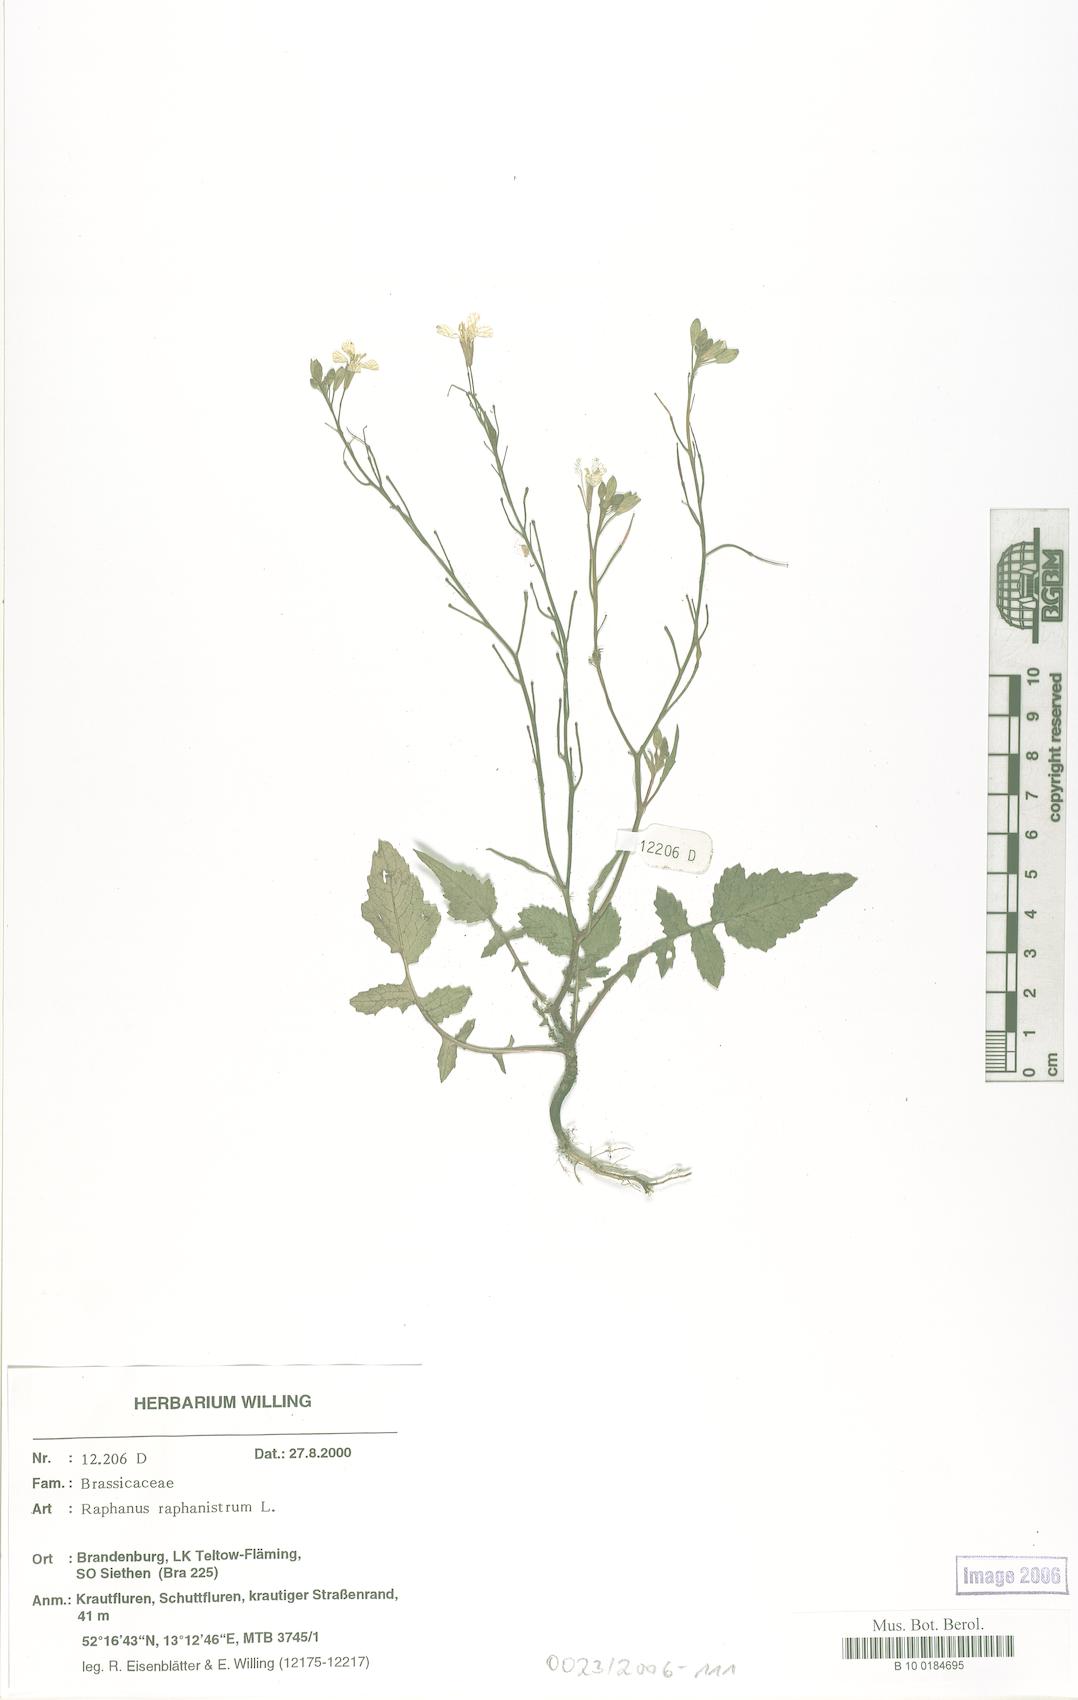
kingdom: Plantae
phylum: Tracheophyta
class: Magnoliopsida
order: Brassicales
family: Brassicaceae
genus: Raphanus
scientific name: Raphanus raphanistrum
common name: Wild radish
